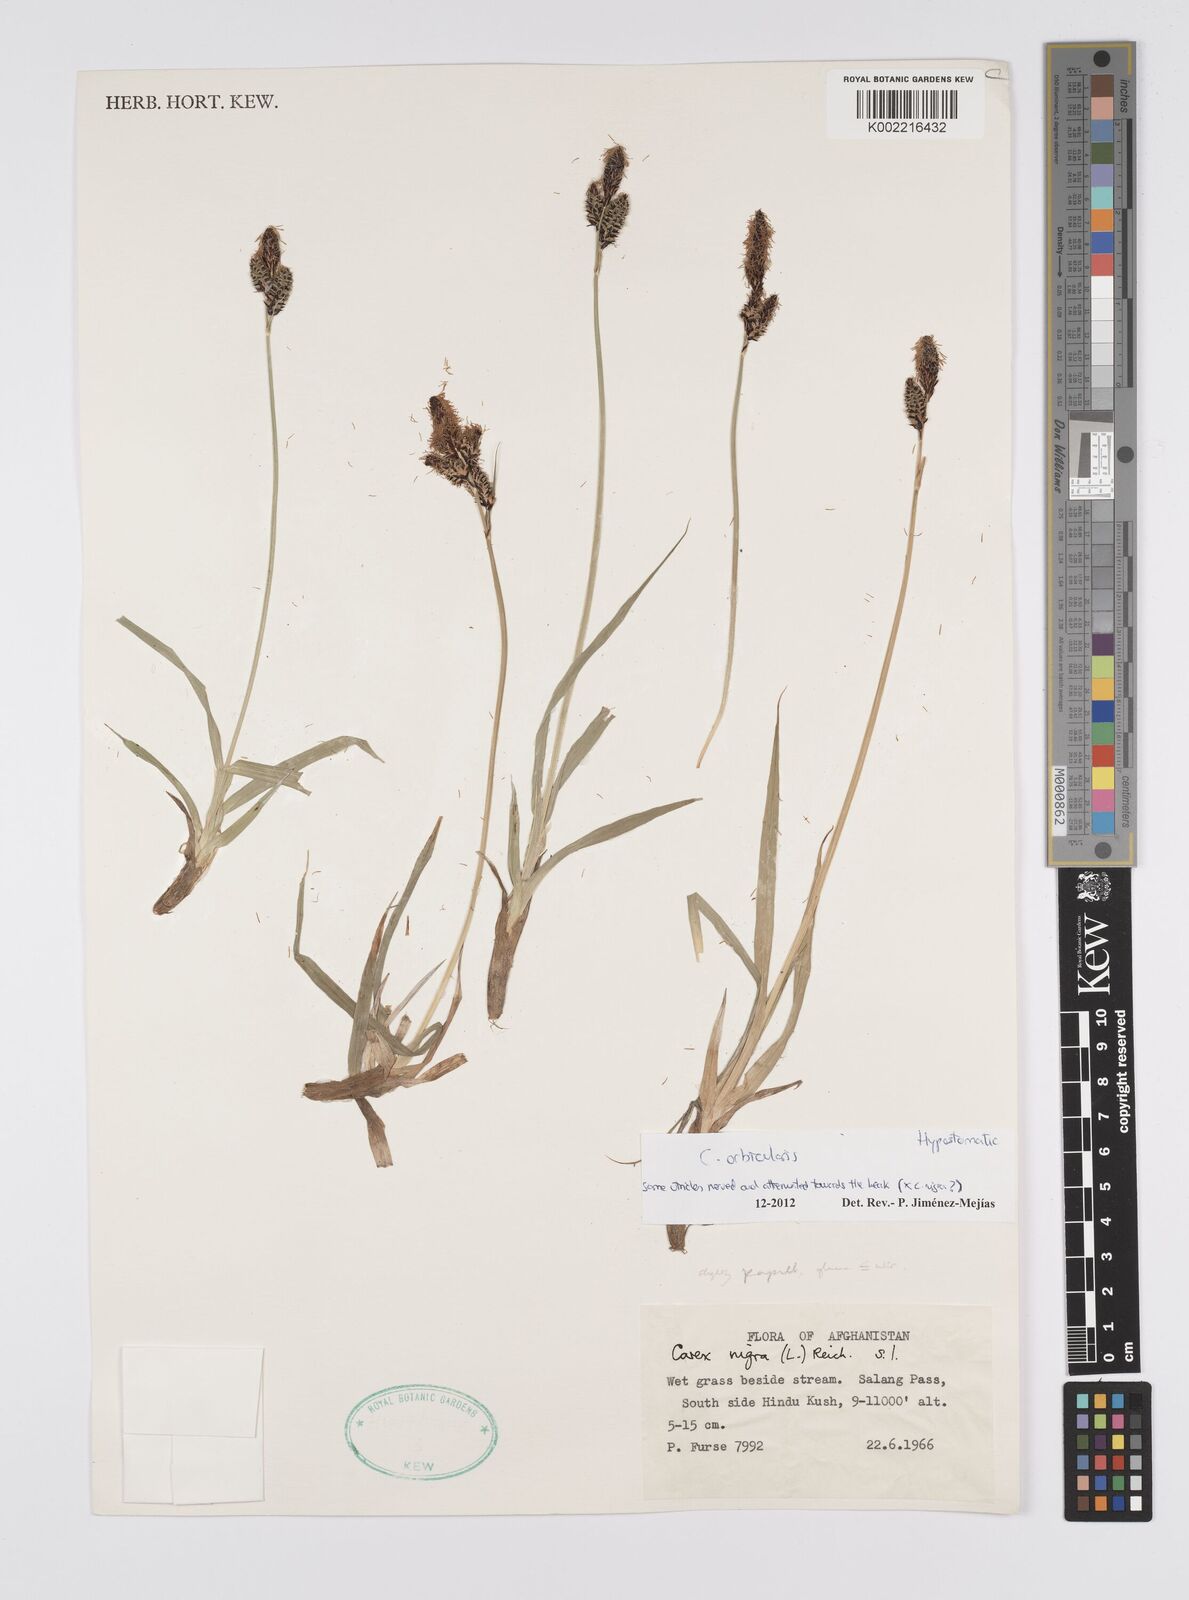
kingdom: Plantae
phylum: Tracheophyta
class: Liliopsida
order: Poales
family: Cyperaceae
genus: Carex
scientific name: Carex orbicularis
